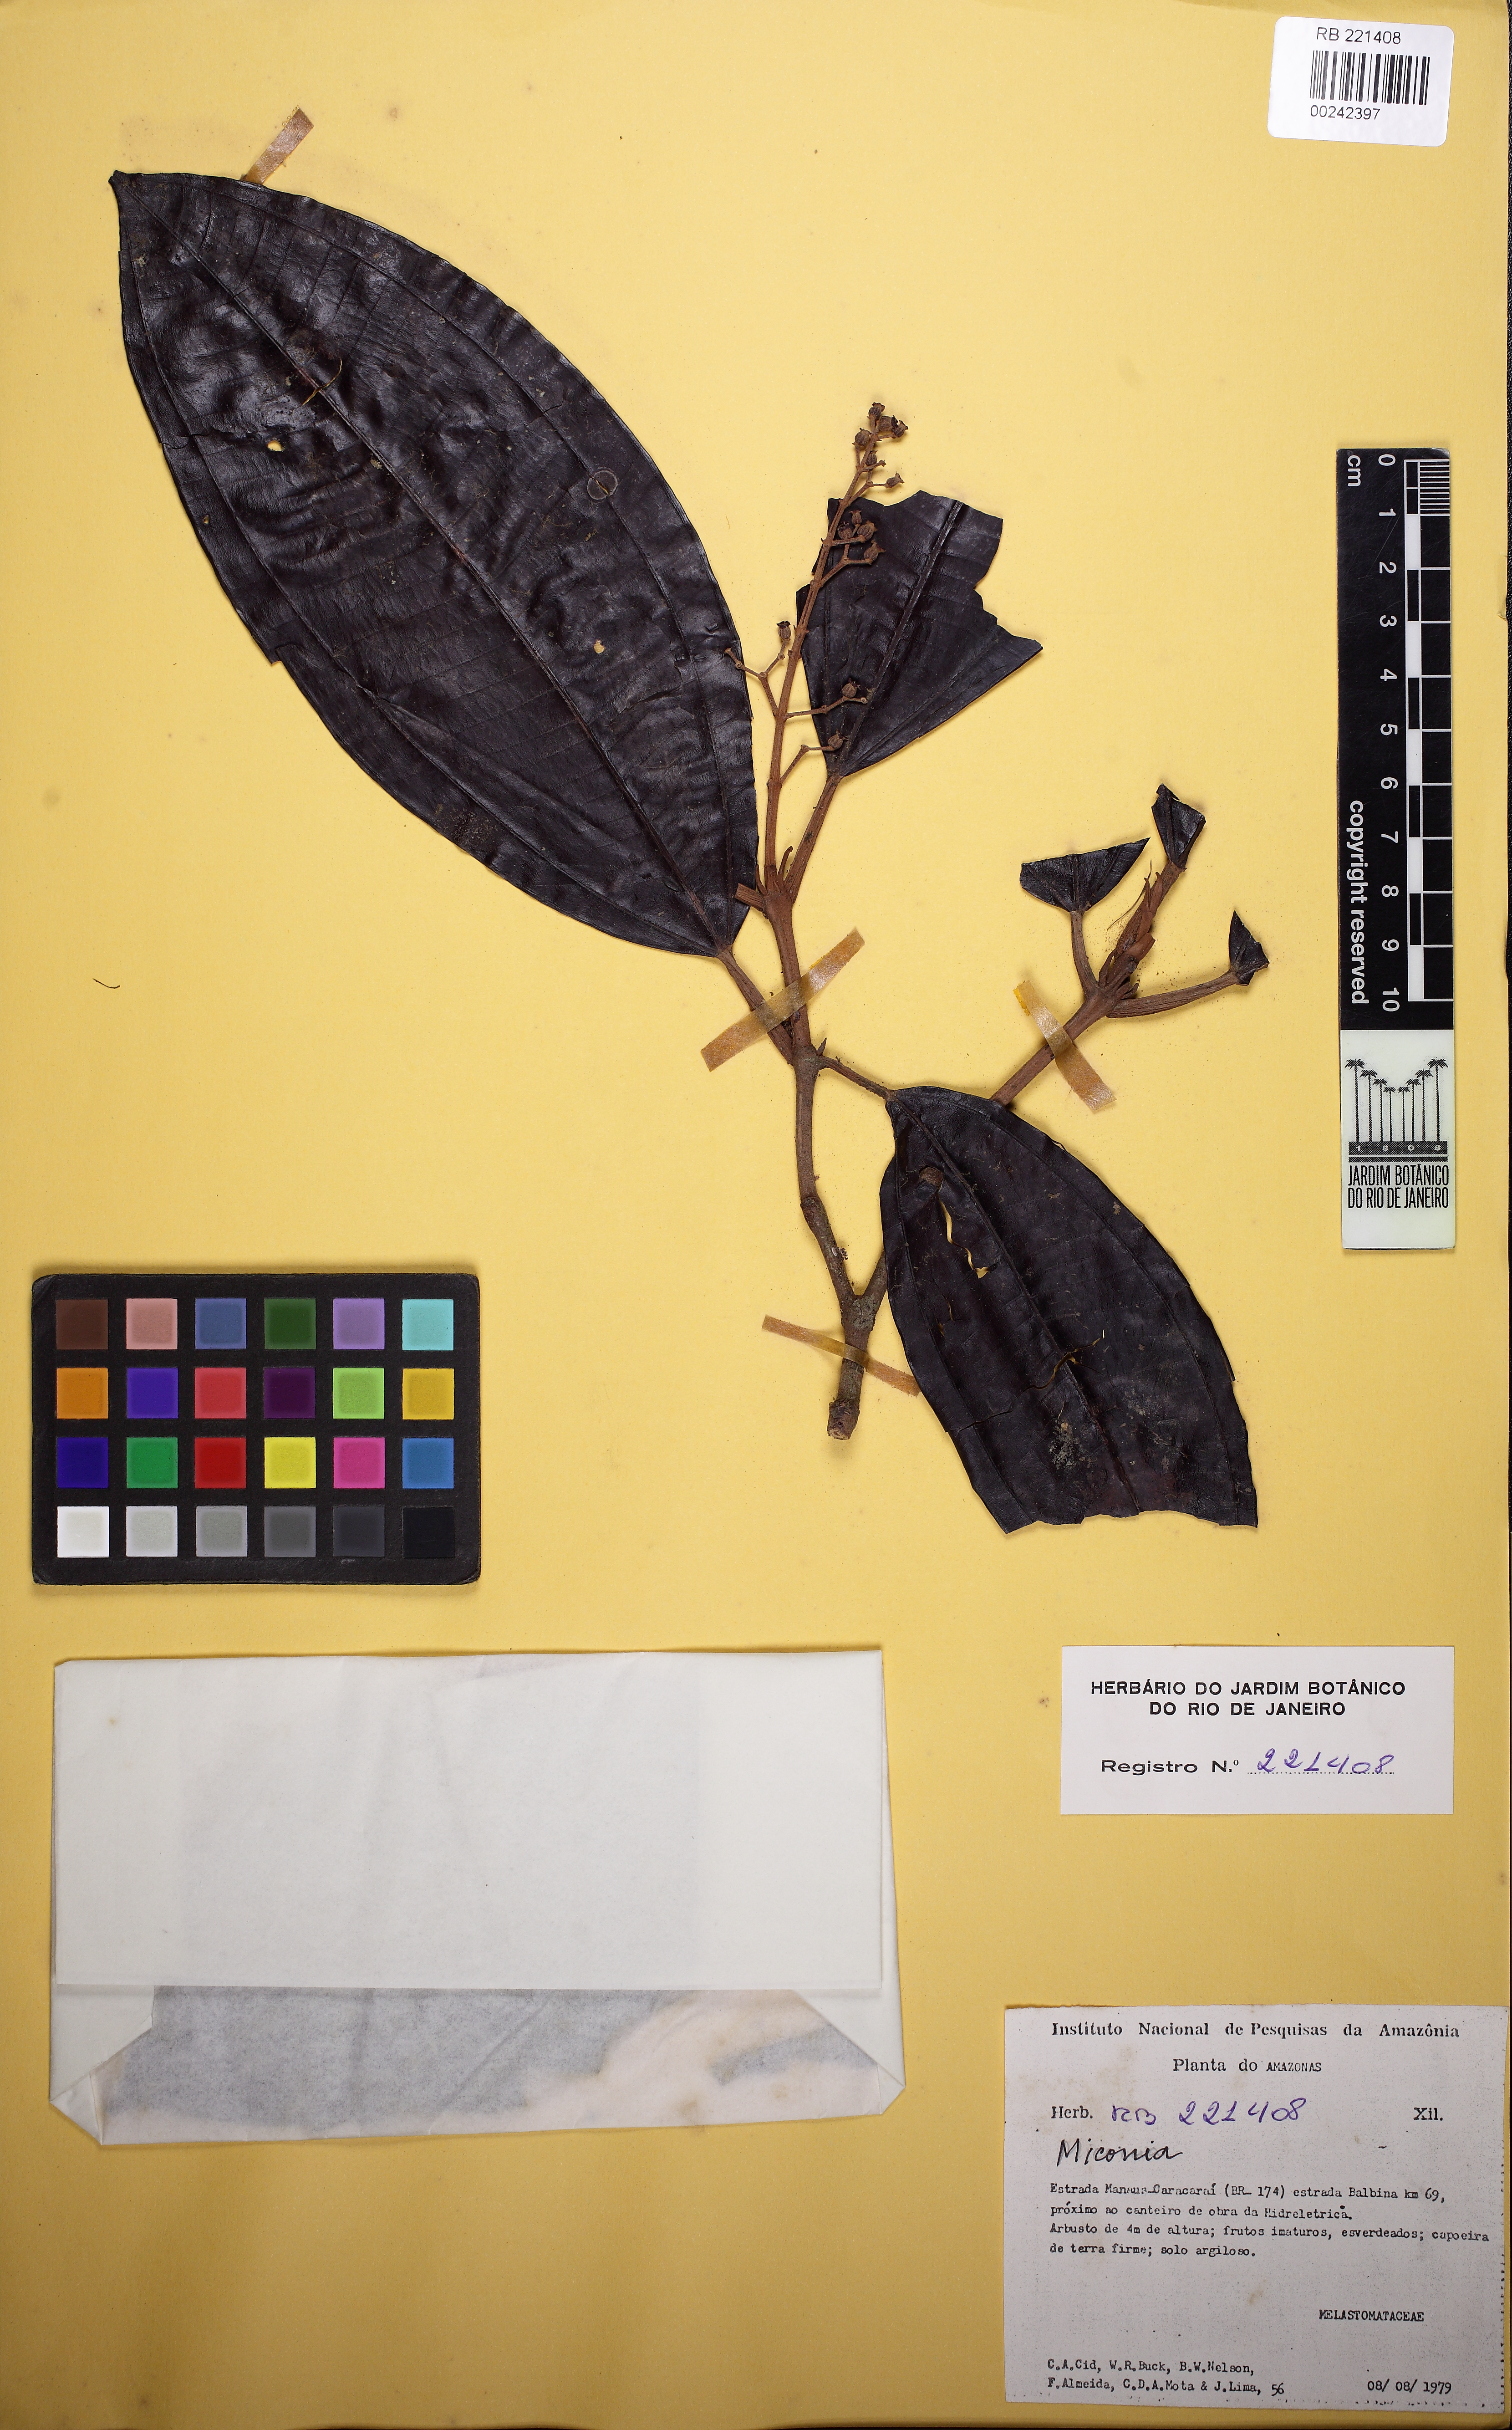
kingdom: Plantae
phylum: Tracheophyta
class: Magnoliopsida
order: Myrtales
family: Melastomataceae
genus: Miconia
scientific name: Miconia
